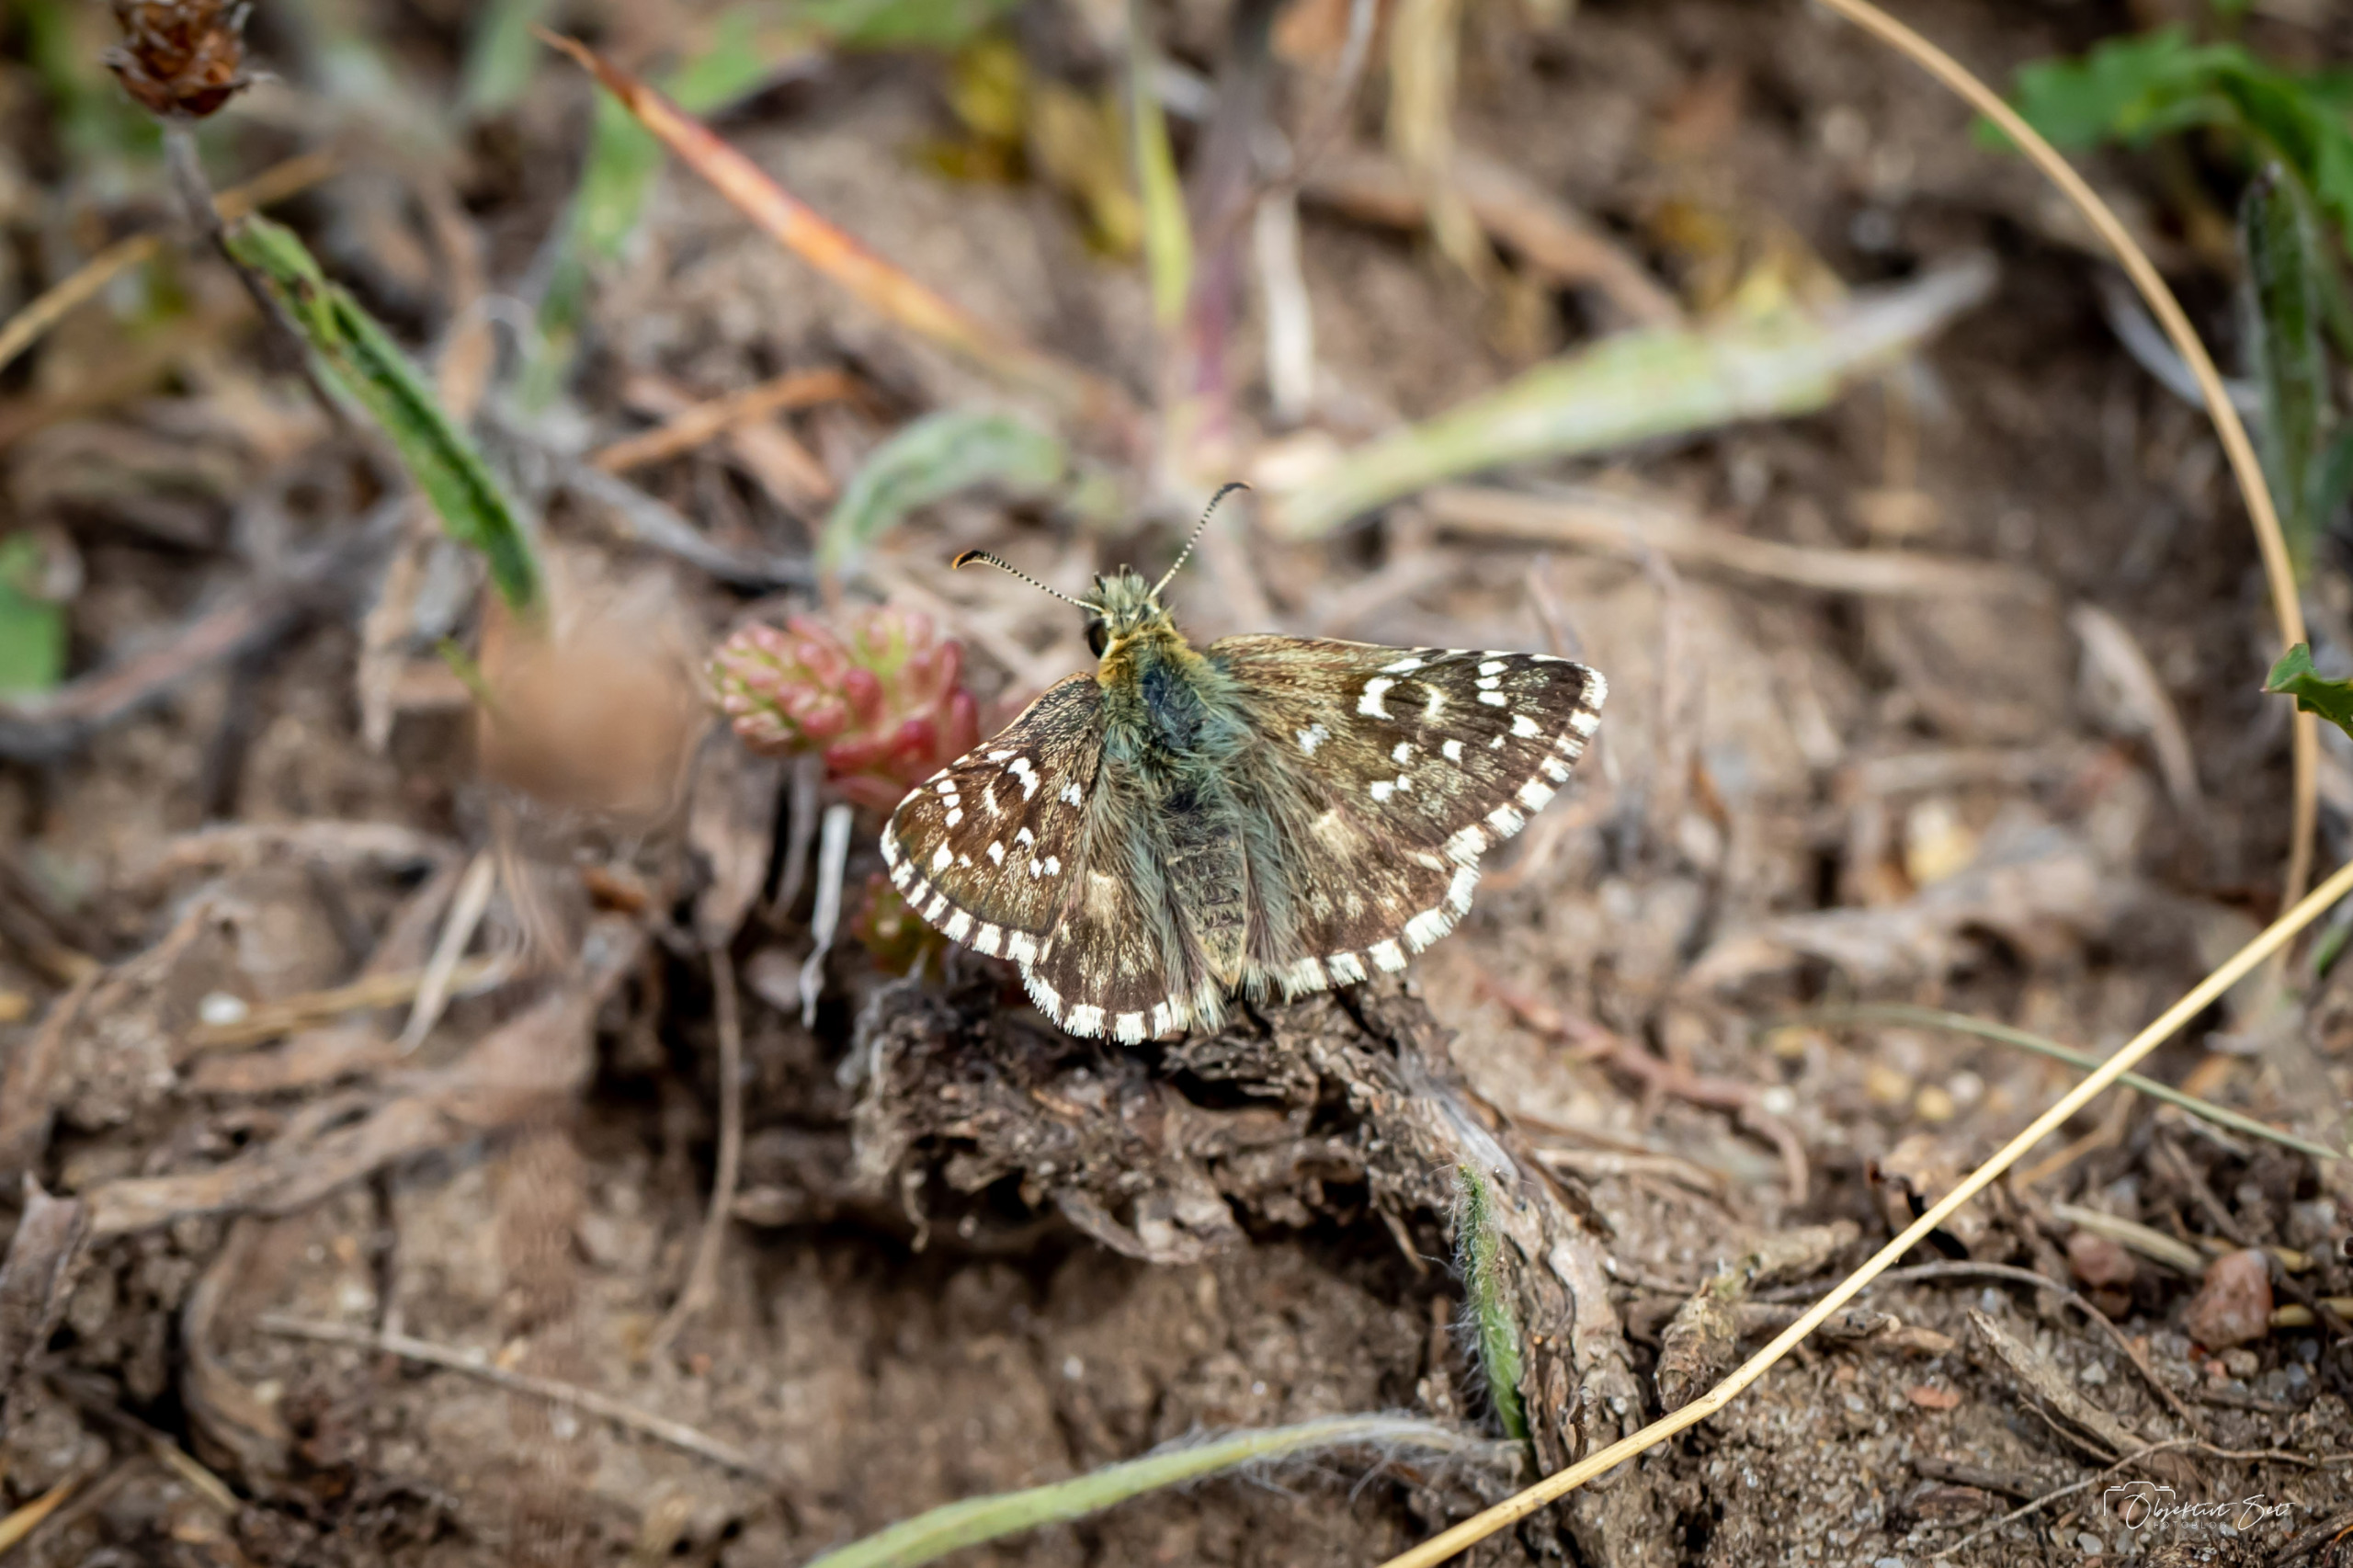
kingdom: Animalia
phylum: Arthropoda
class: Insecta
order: Lepidoptera
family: Hesperiidae
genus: Pyrgus
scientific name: Pyrgus armoricanus
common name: Fransk bredpande
